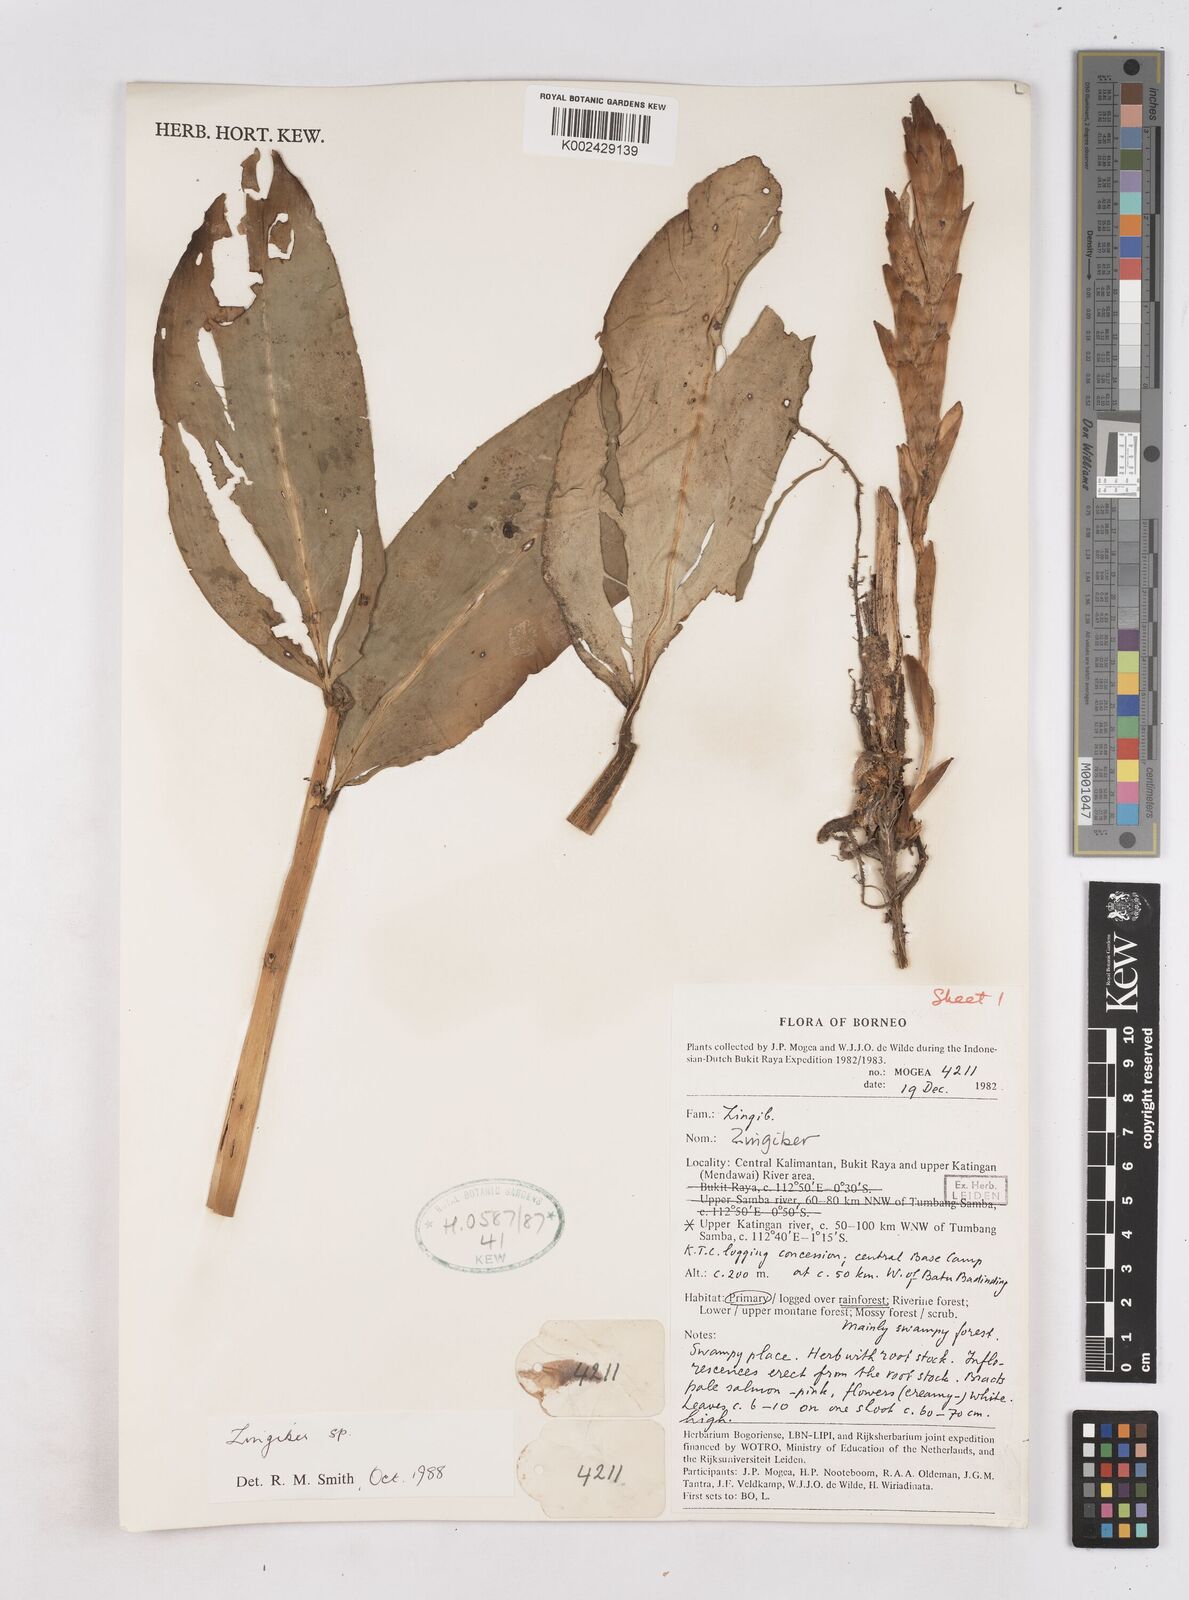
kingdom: Plantae
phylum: Tracheophyta
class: Liliopsida
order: Zingiberales
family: Zingiberaceae
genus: Zingiber
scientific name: Zingiber
